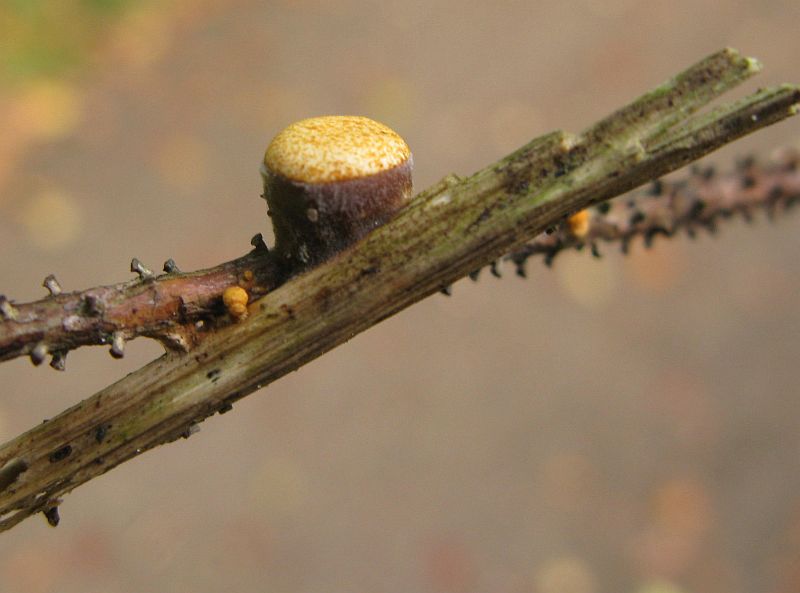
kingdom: Fungi
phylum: Basidiomycota
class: Agaricomycetes
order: Agaricales
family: Nidulariaceae
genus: Crucibulum
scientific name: Crucibulum
